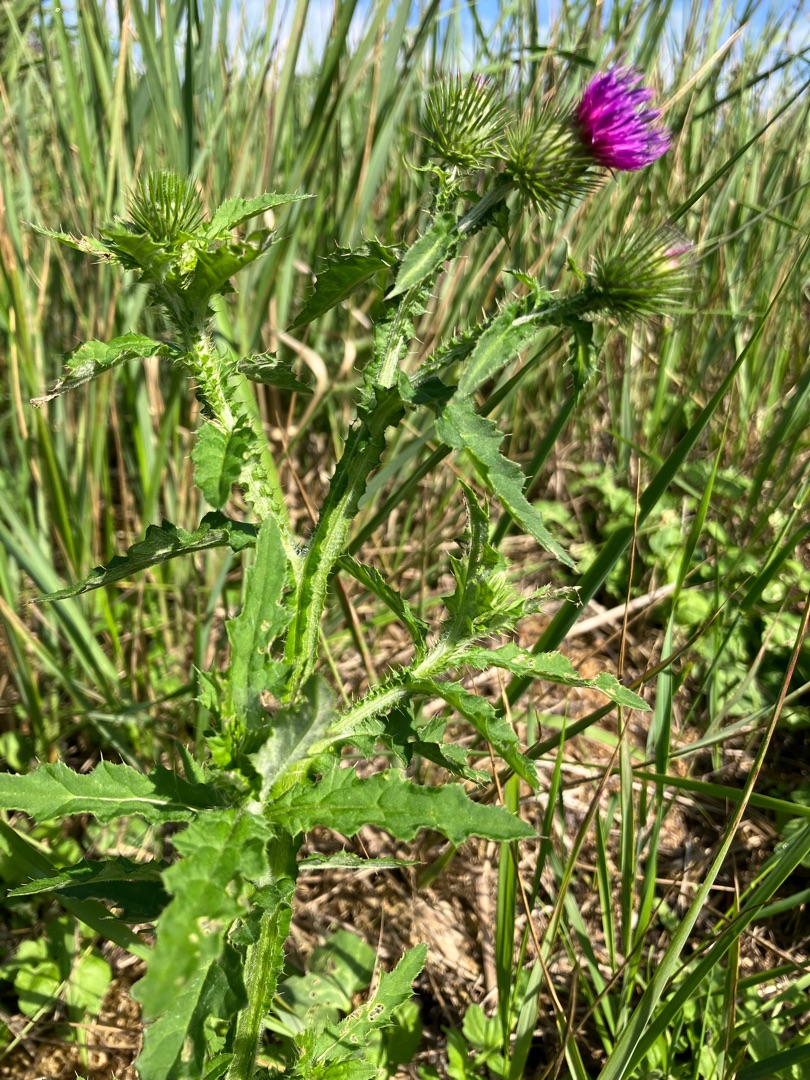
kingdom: Plantae
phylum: Tracheophyta
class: Magnoliopsida
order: Asterales
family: Asteraceae
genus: Carduus
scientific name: Carduus crispus
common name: Kruset tidsel
